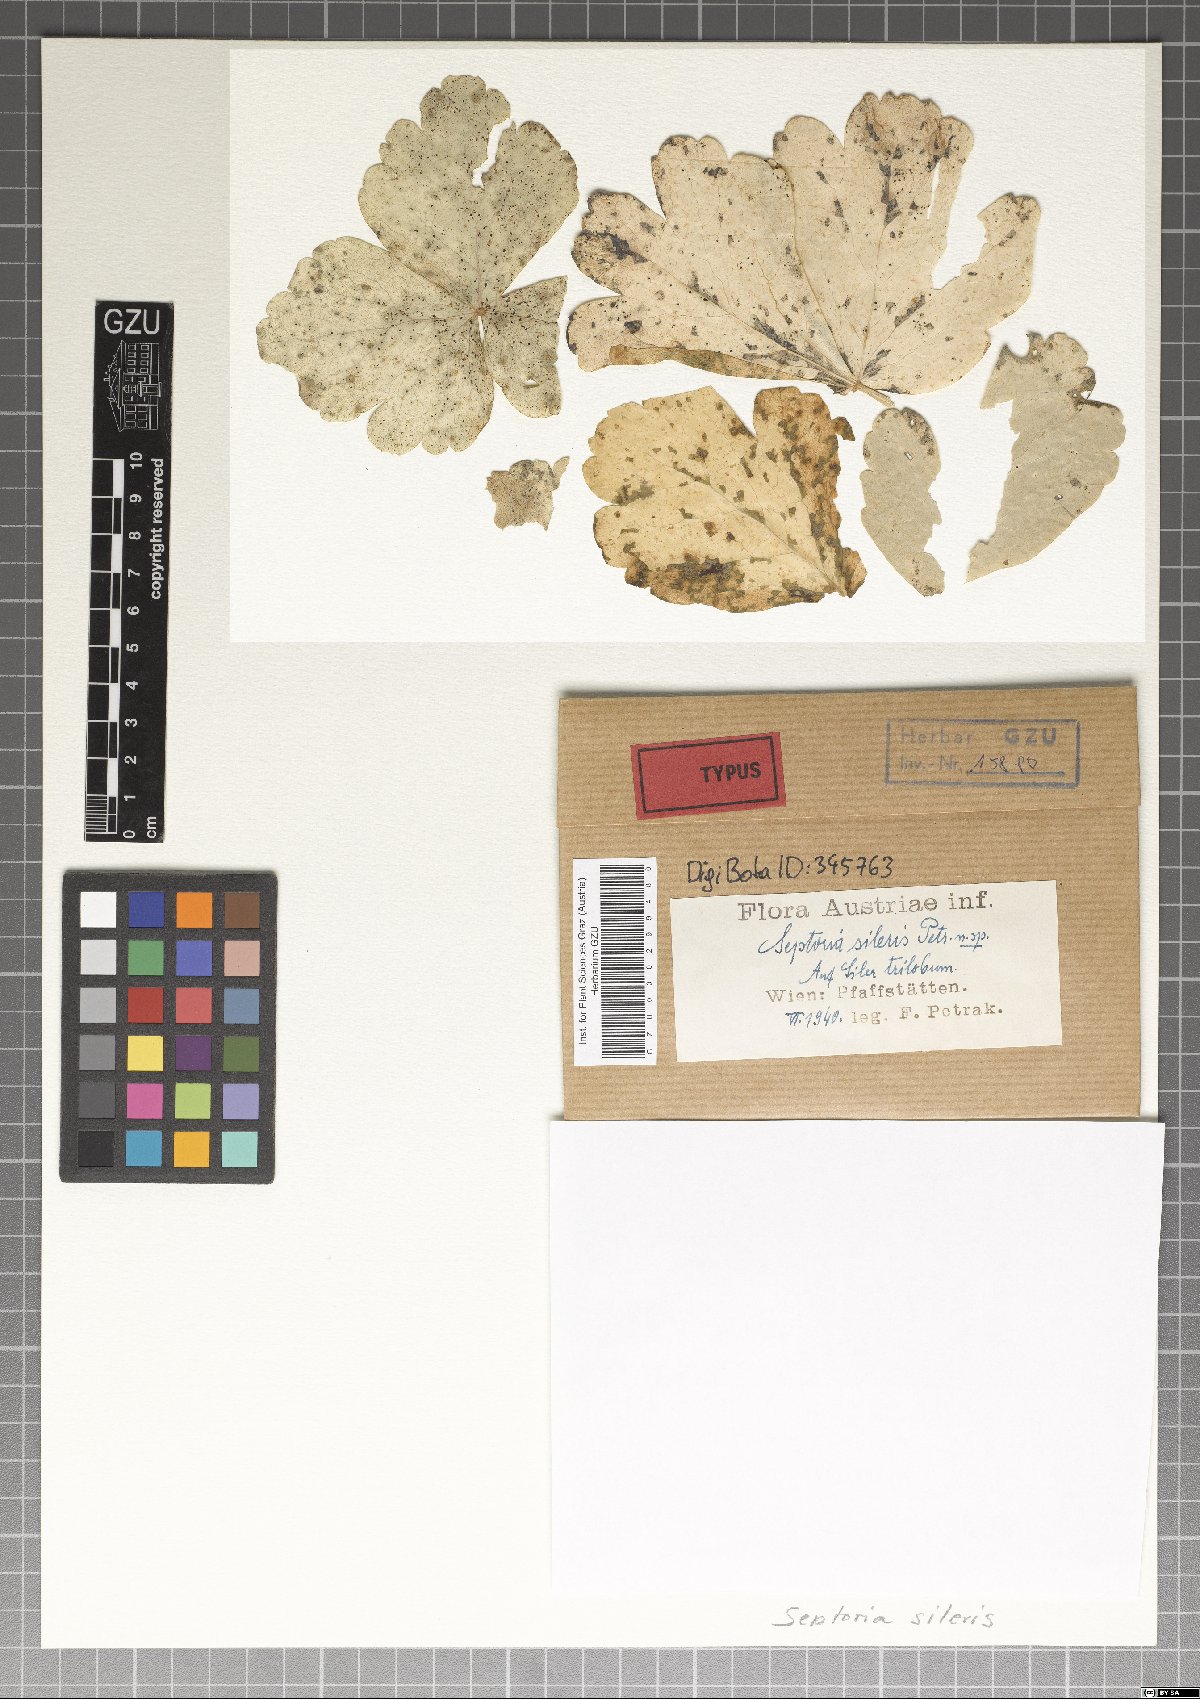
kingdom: Fungi
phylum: Ascomycota
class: Dothideomycetes
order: Mycosphaerellales
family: Mycosphaerellaceae
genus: Caryophylloseptoria
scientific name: Caryophylloseptoria silenes
